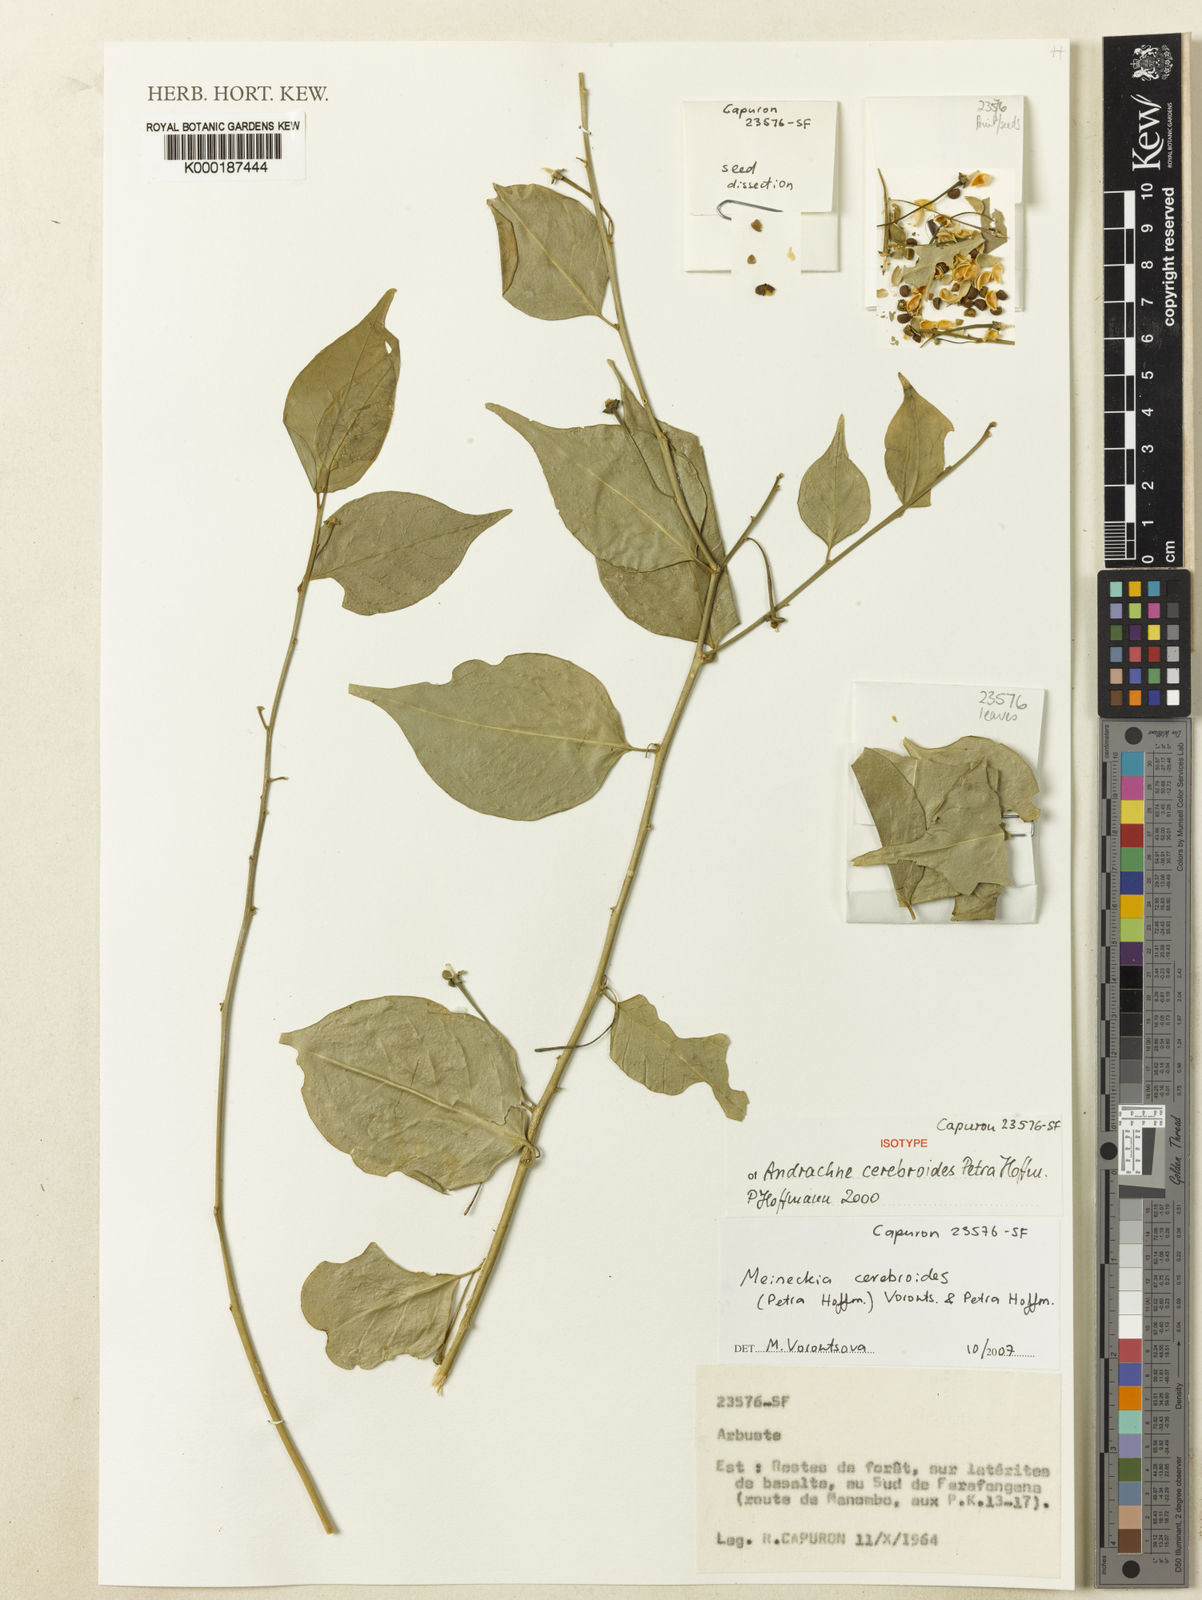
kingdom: Plantae
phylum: Tracheophyta
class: Magnoliopsida
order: Malpighiales
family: Phyllanthaceae
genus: Meineckia
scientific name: Meineckia cerebroides
